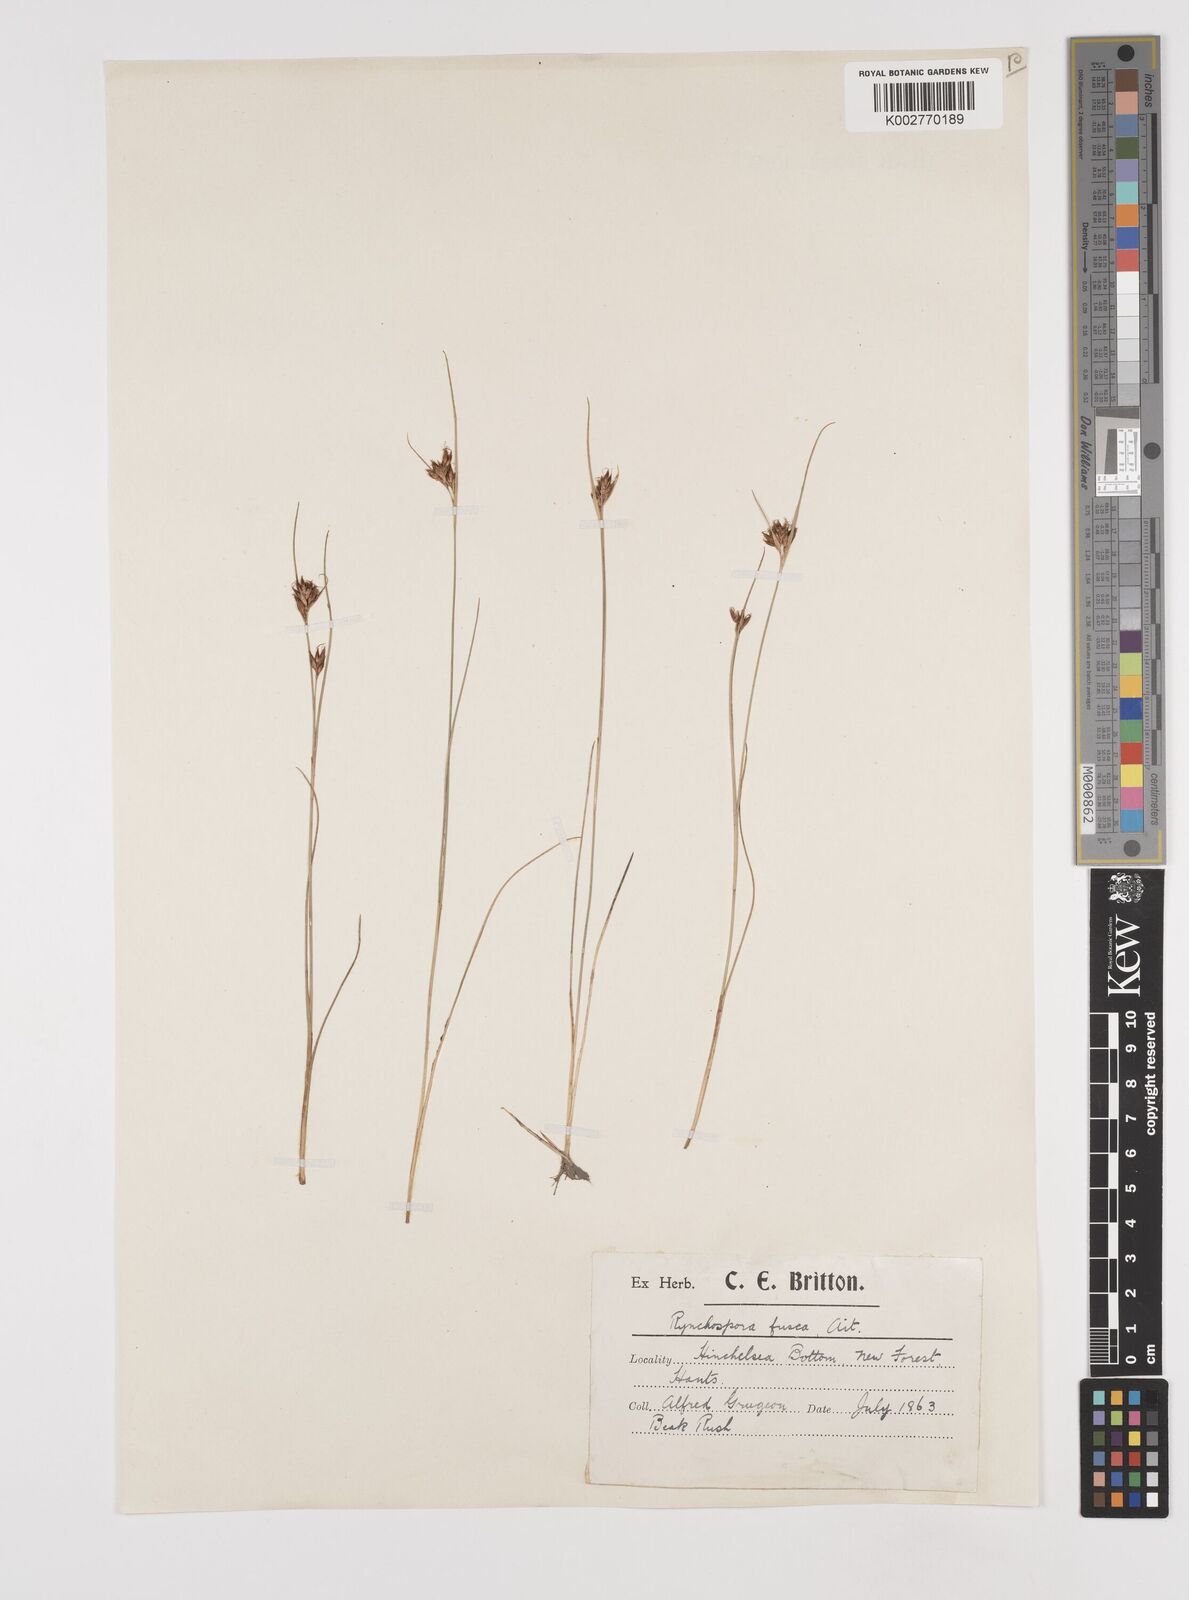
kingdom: Plantae
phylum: Tracheophyta
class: Liliopsida
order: Poales
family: Cyperaceae
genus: Rhynchospora
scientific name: Rhynchospora fusca
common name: Brown beak-sedge
